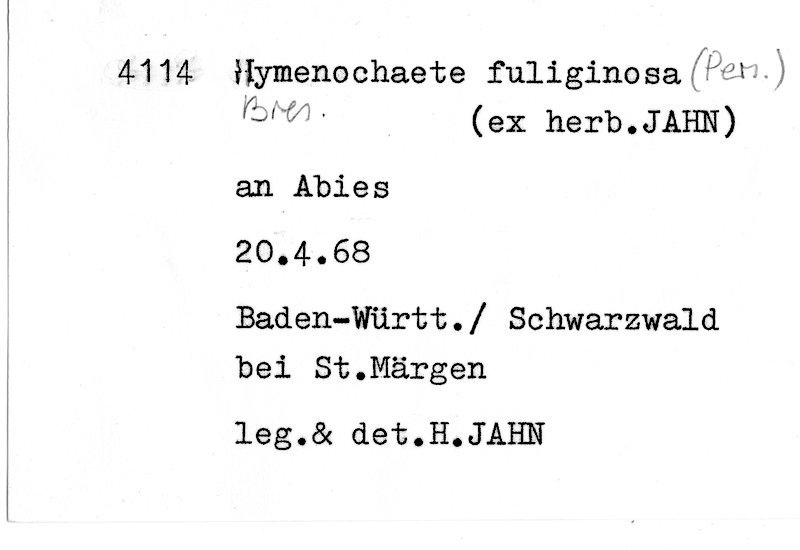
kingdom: Fungi
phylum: Basidiomycota
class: Agaricomycetes
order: Hymenochaetales
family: Hymenochaetaceae
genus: Hymenochaete
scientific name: Hymenochaete fuliginosa
